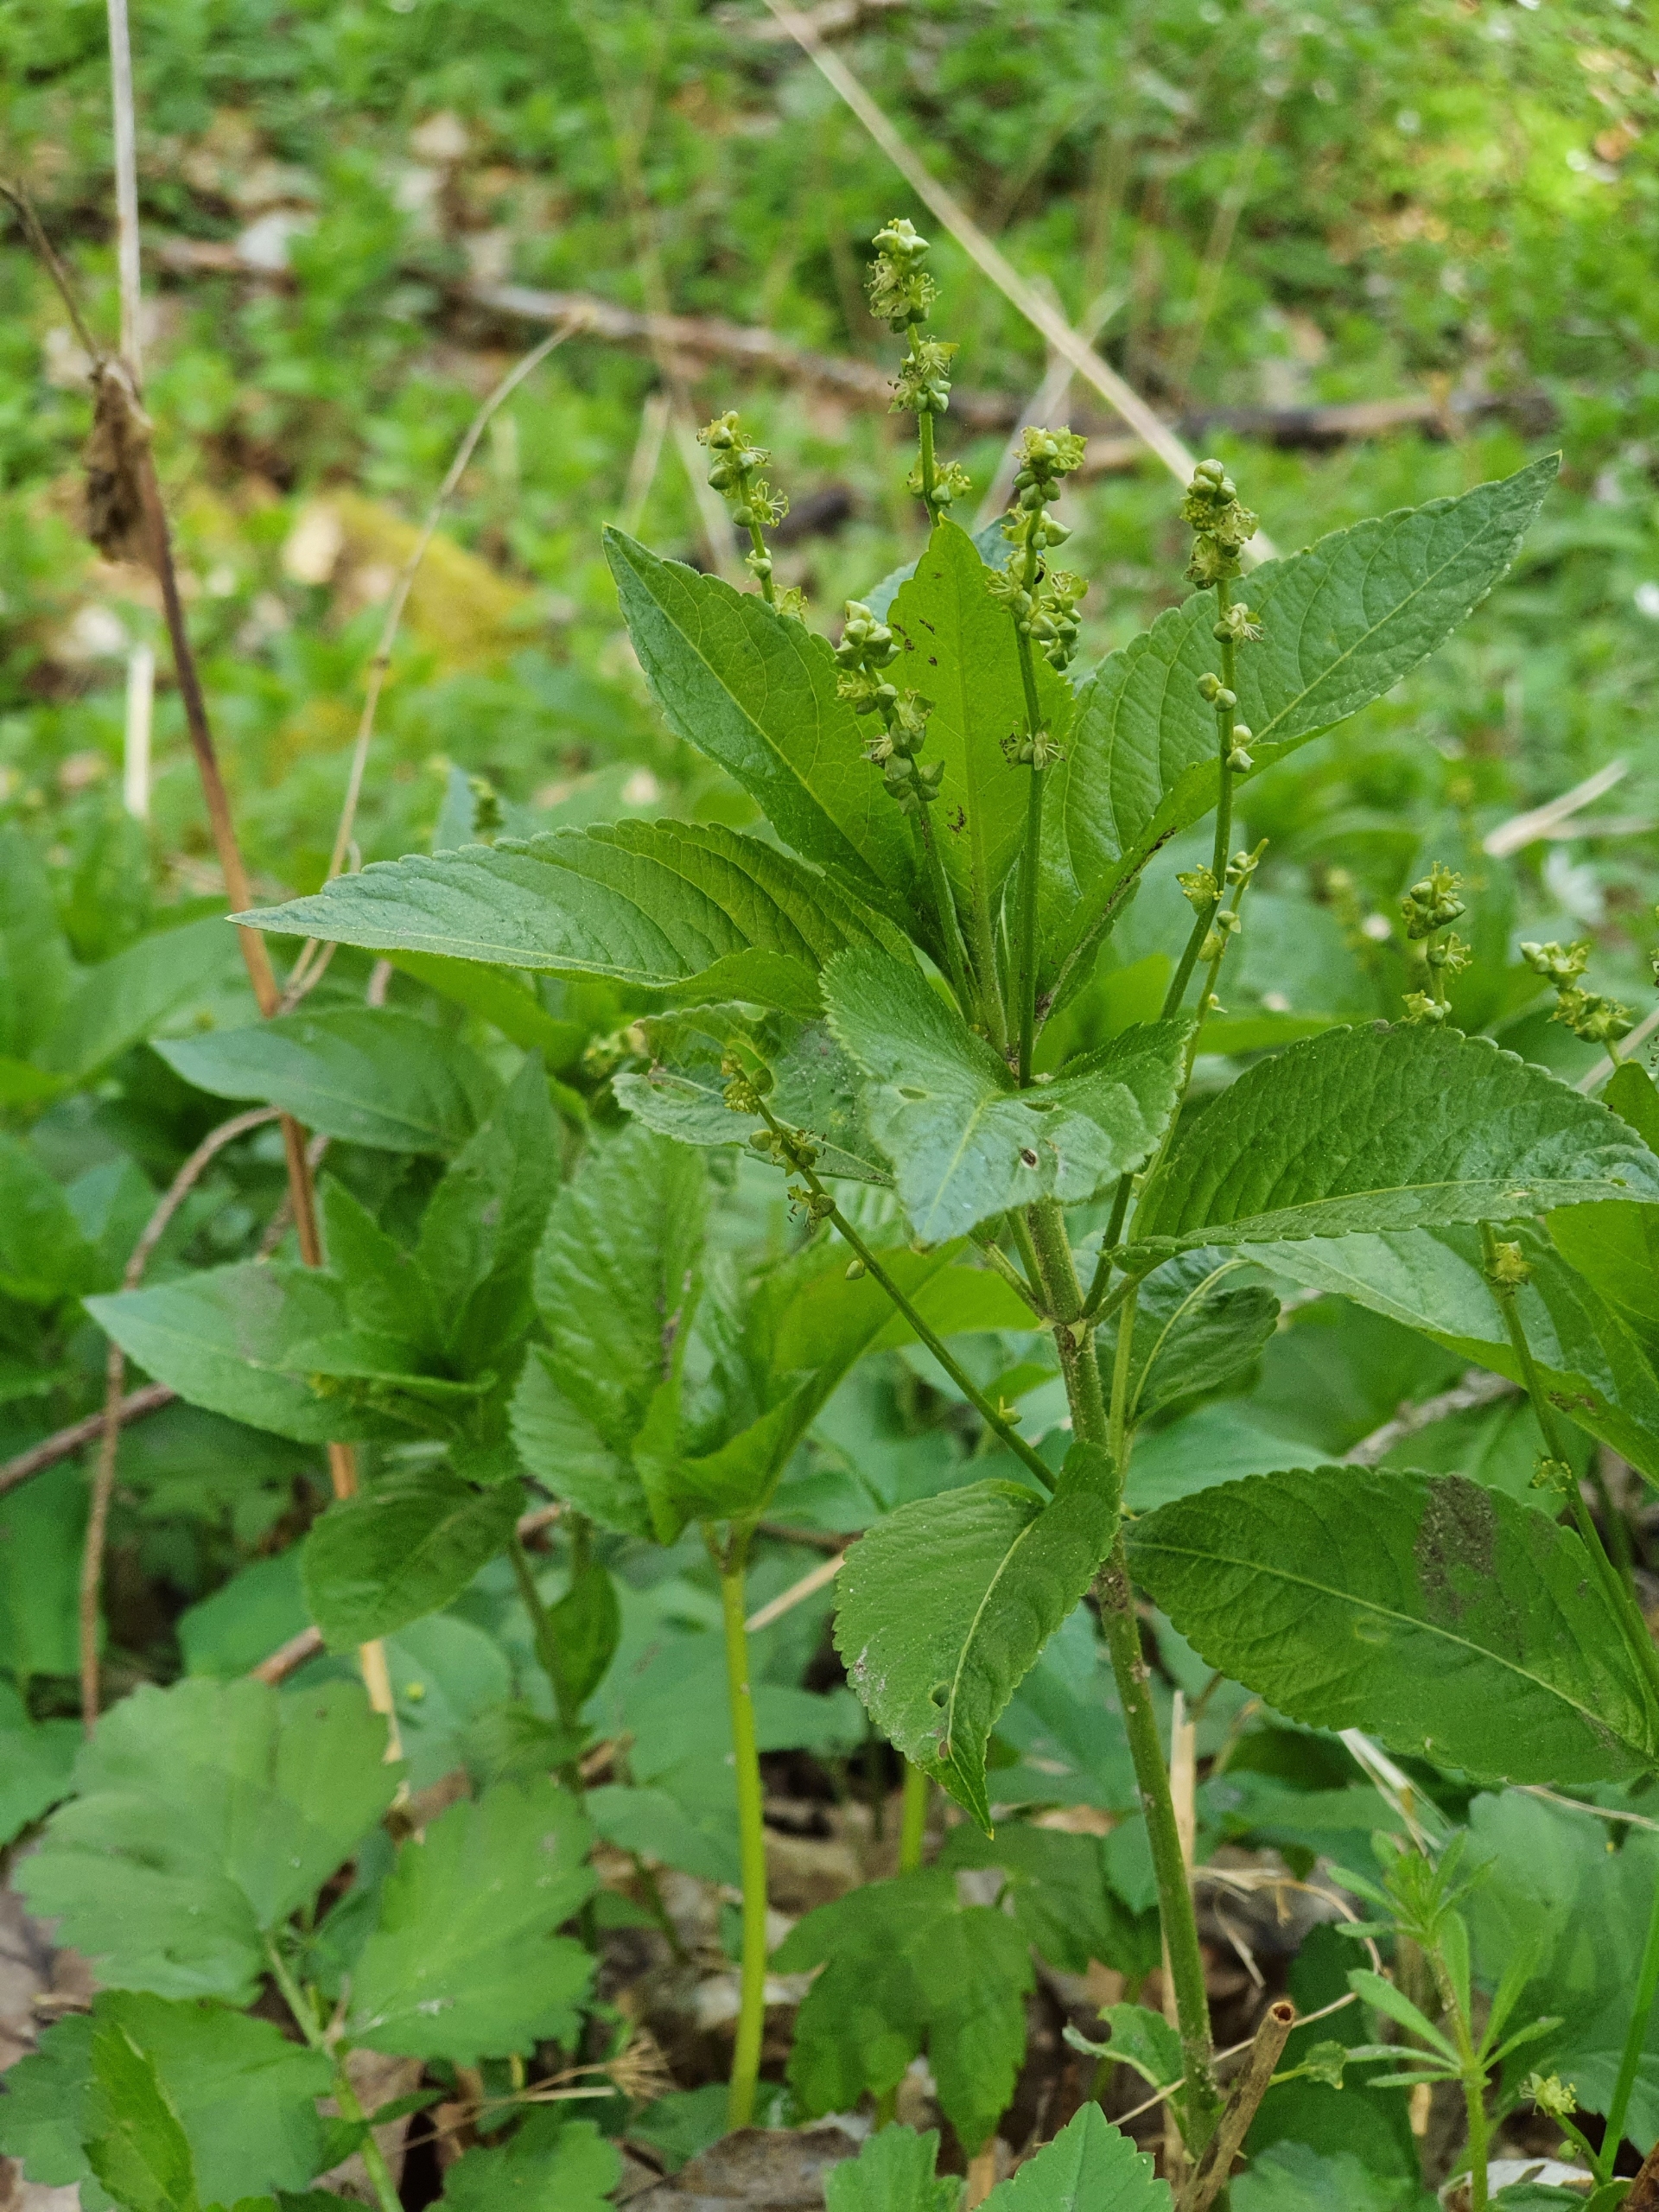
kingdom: Plantae
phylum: Tracheophyta
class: Magnoliopsida
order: Malpighiales
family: Euphorbiaceae
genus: Mercurialis
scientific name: Mercurialis perennis
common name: Almindelig bingelurt
